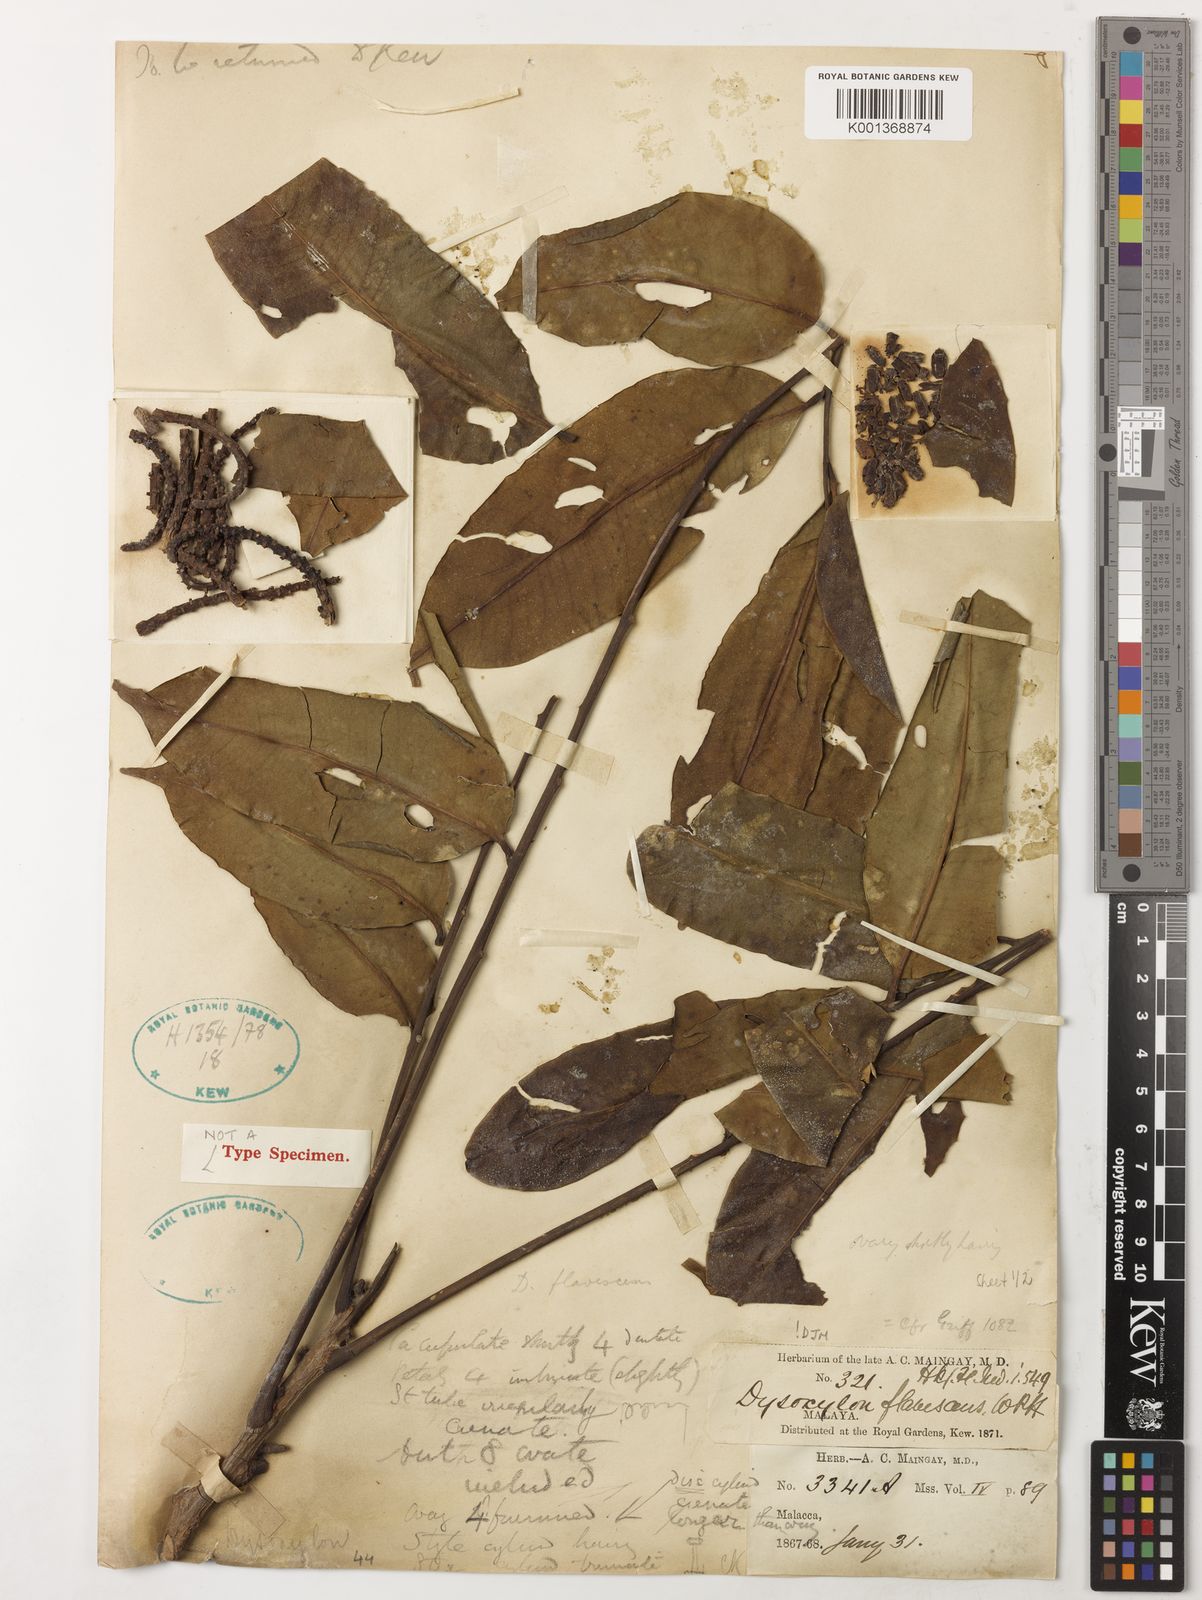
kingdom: Plantae
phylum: Tracheophyta
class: Magnoliopsida
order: Sapindales
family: Meliaceae
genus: Dysoxylum
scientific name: Dysoxylum flavescens
